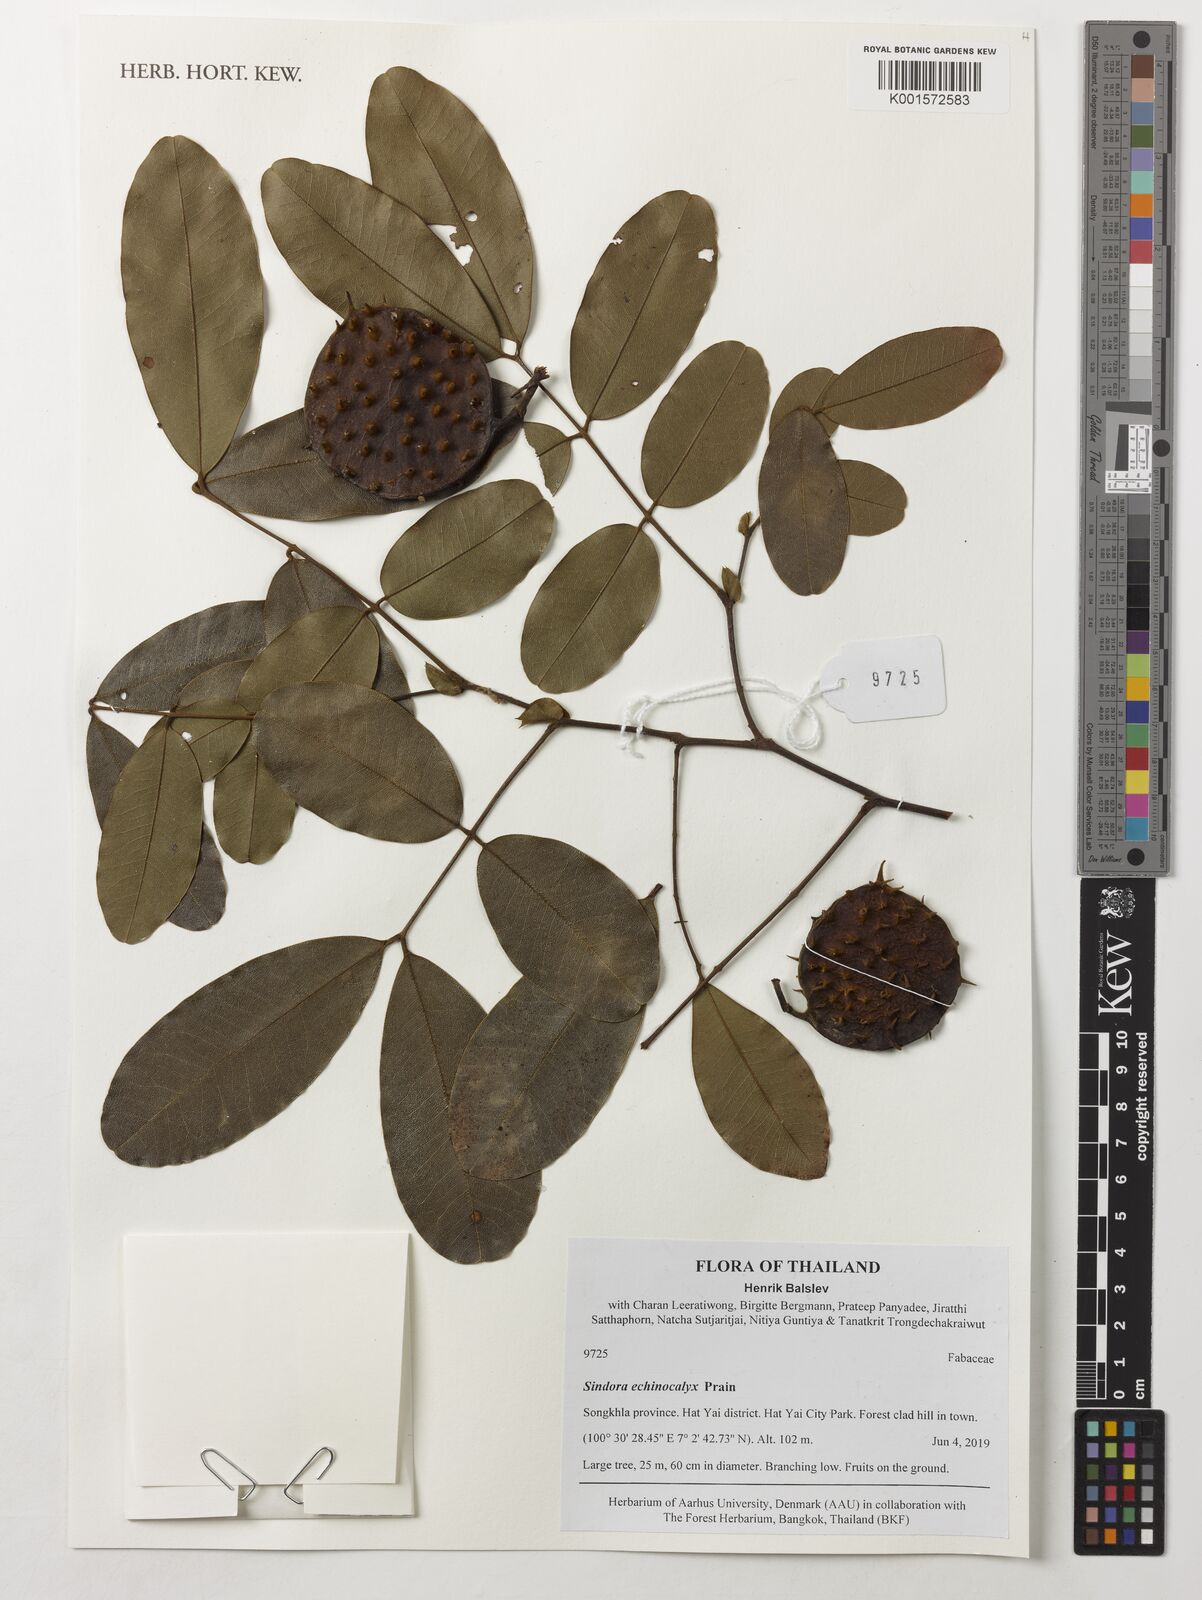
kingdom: Plantae
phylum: Tracheophyta
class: Magnoliopsida
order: Fabales
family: Fabaceae
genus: Sindora
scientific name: Sindora echinocalyx
